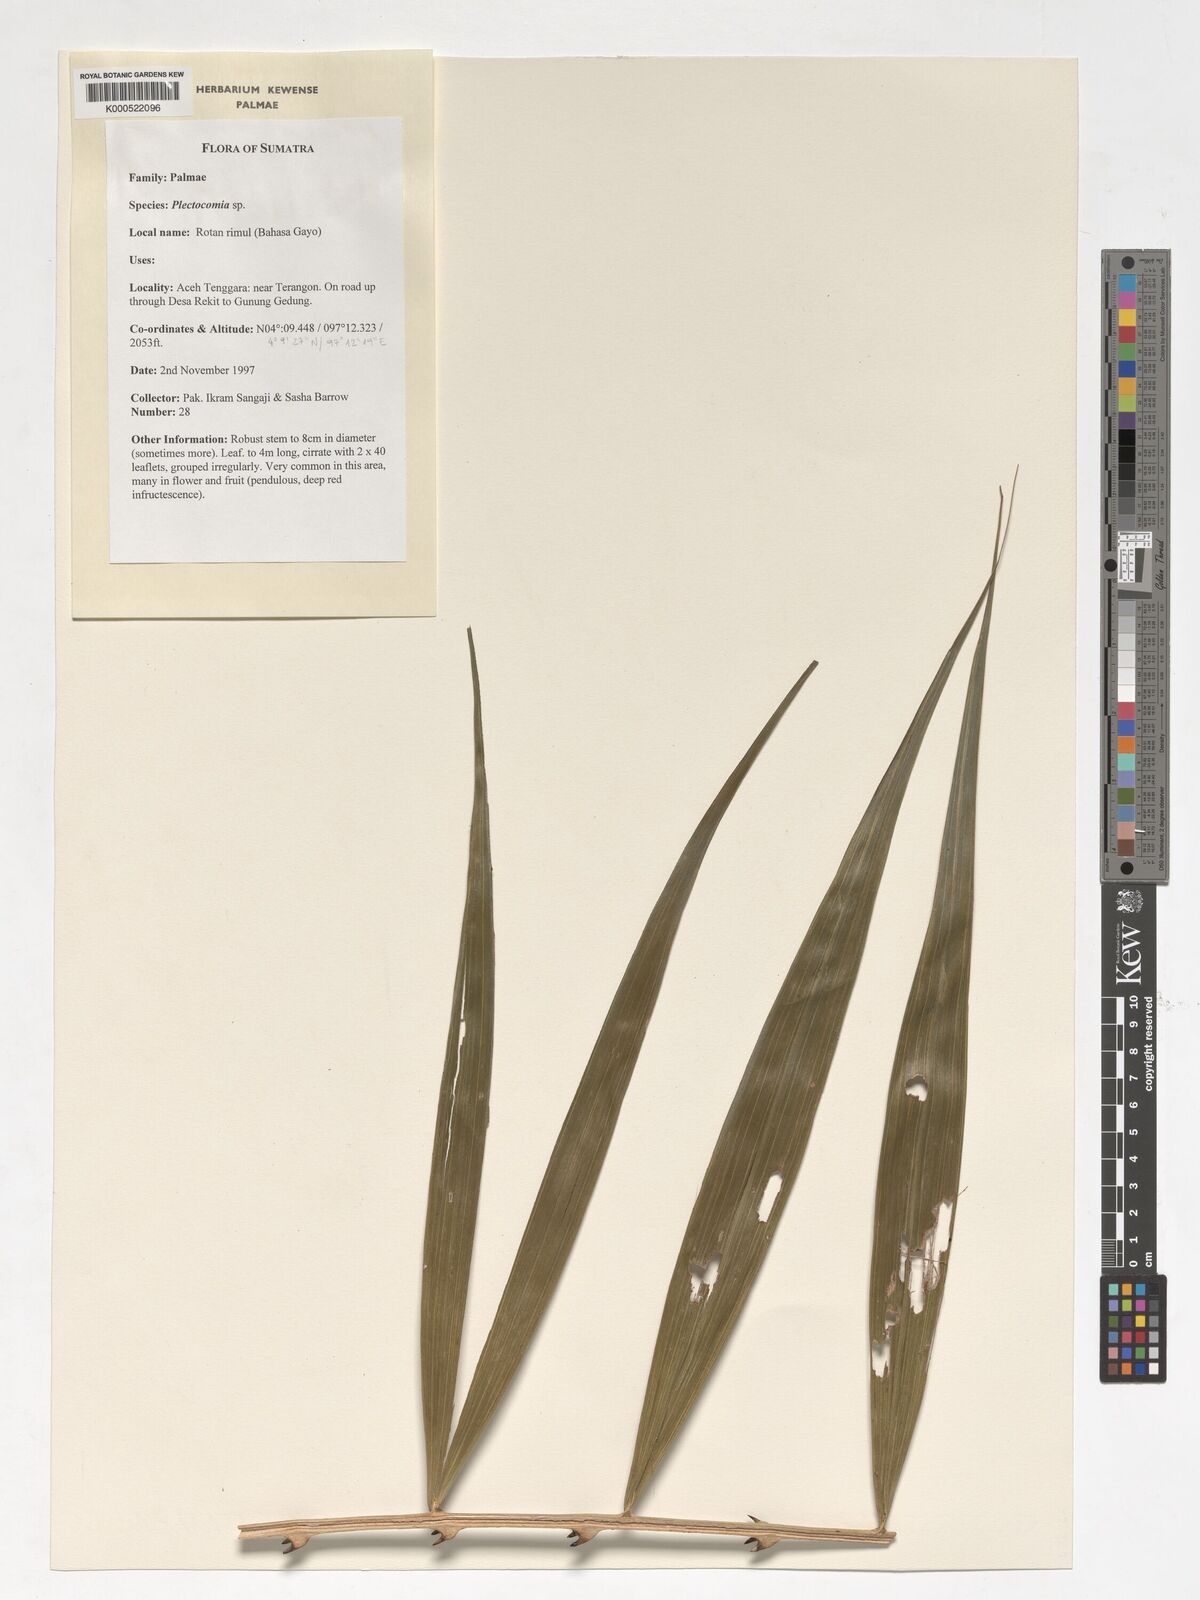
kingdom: Plantae
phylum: Tracheophyta
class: Liliopsida
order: Arecales
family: Arecaceae
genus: Plectocomia
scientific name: Plectocomia
